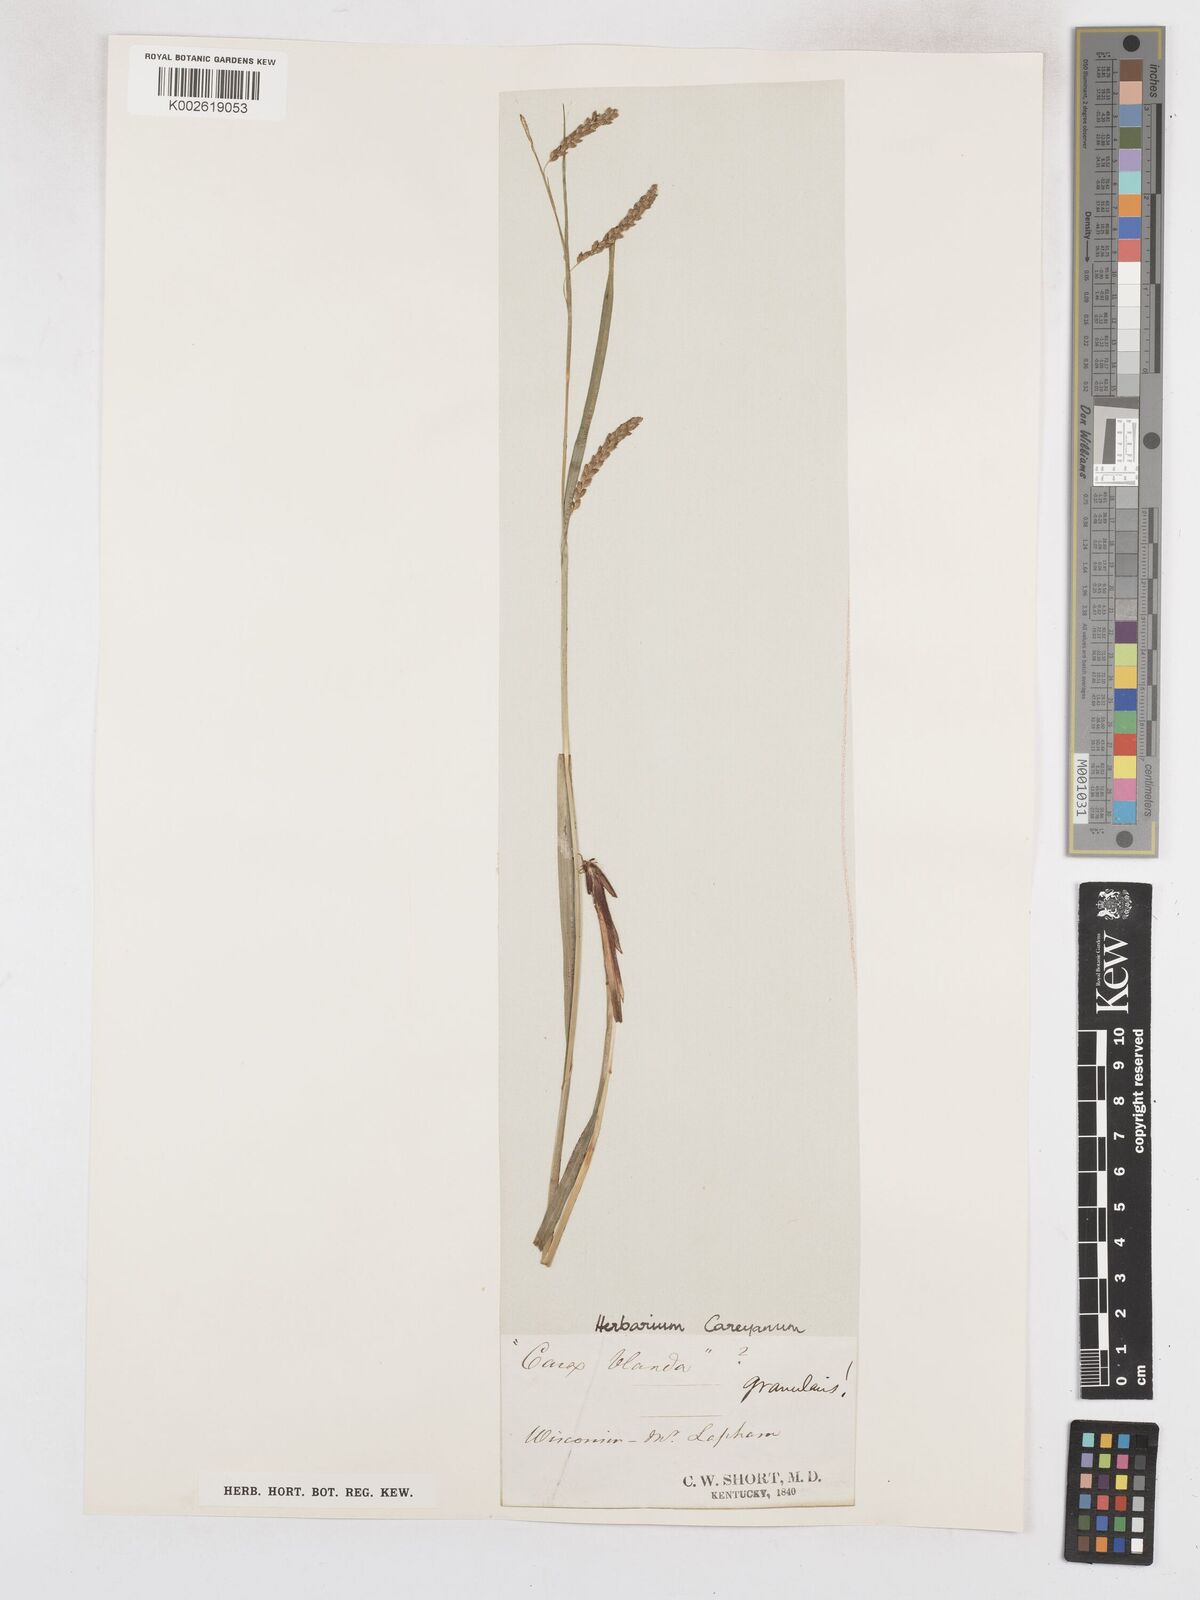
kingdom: Plantae
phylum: Tracheophyta
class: Liliopsida
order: Poales
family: Cyperaceae
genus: Carex
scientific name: Carex blanda
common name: Bland sedge
